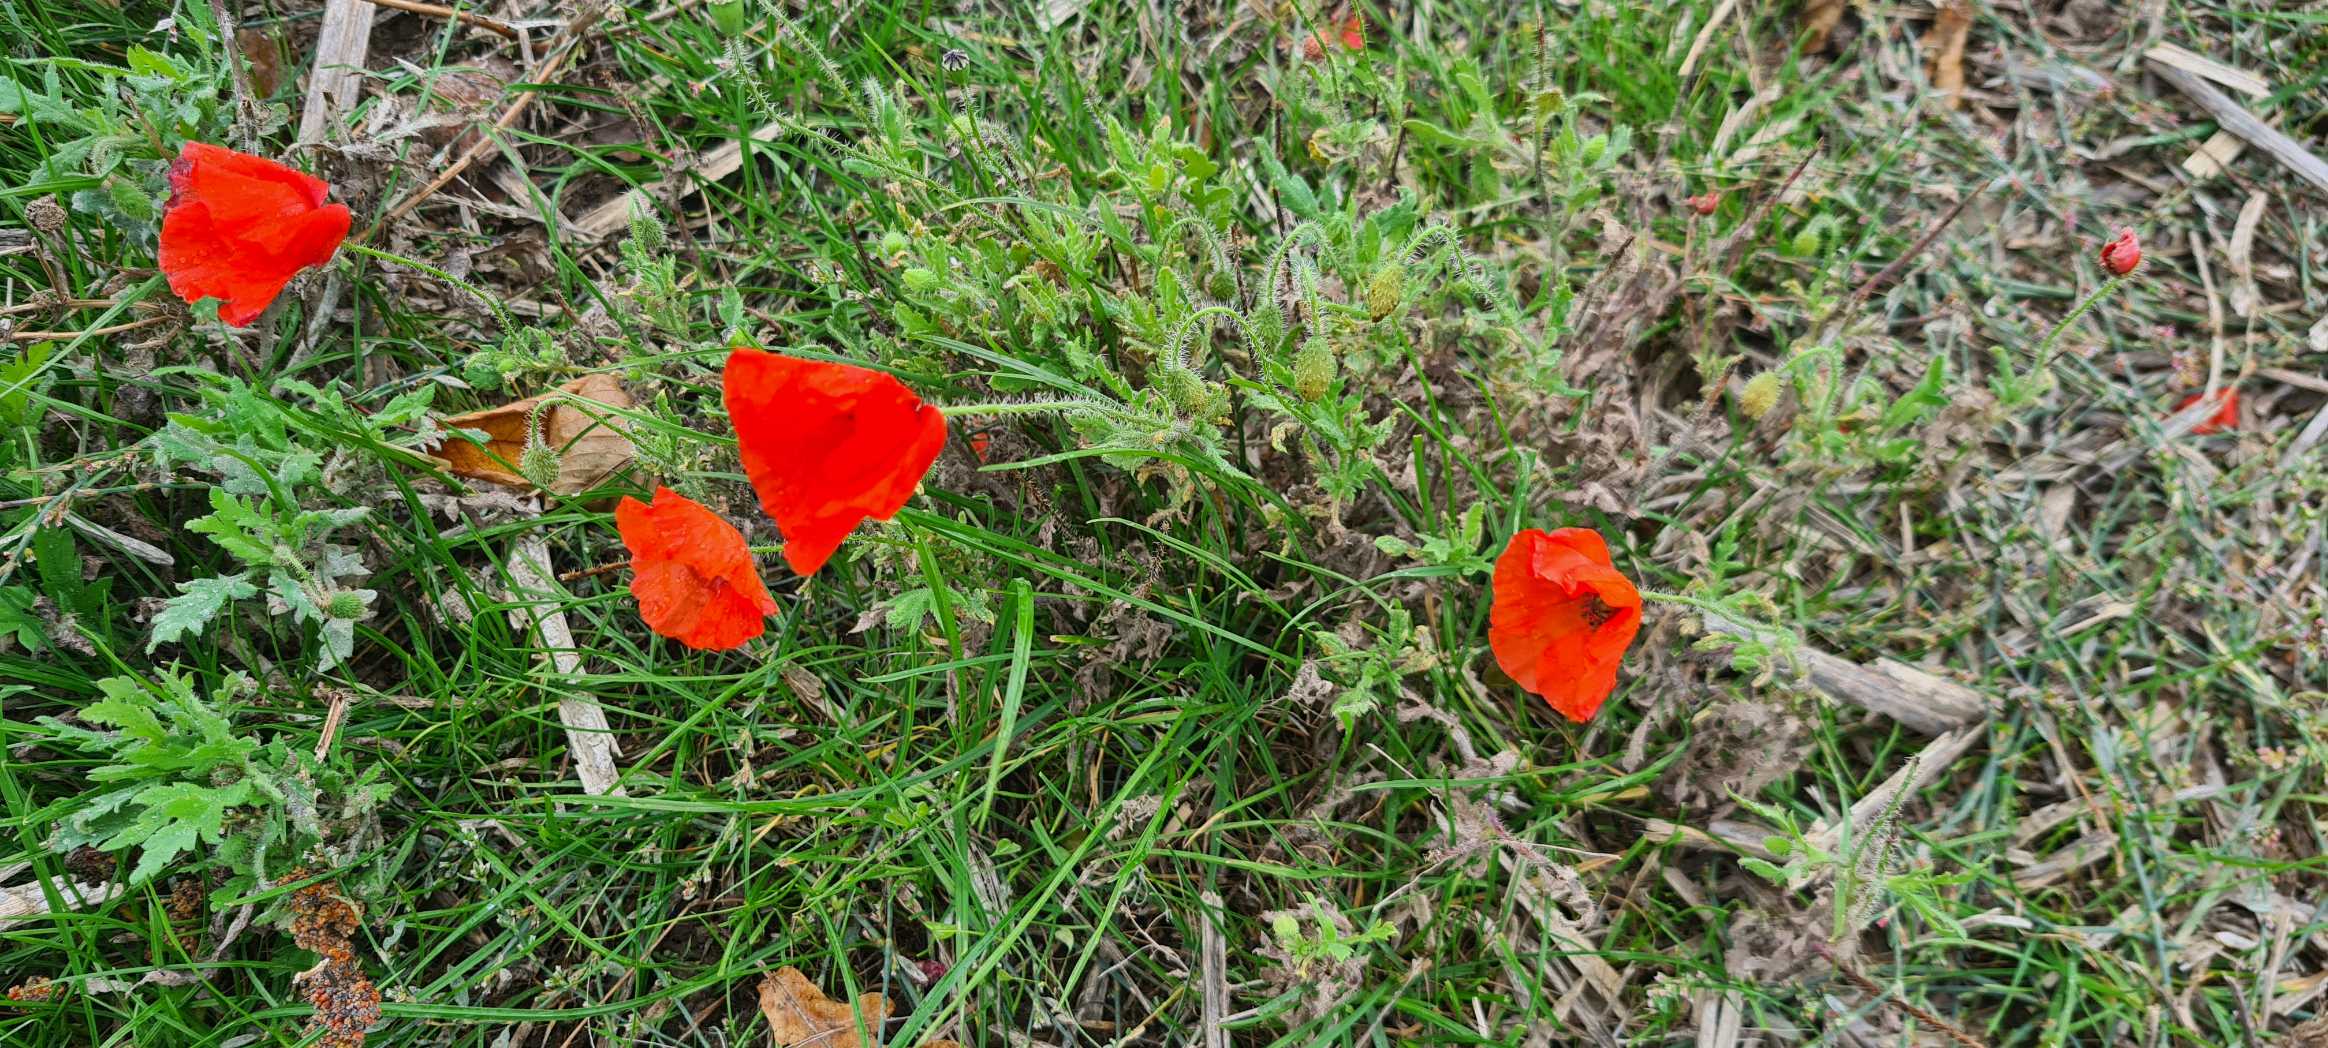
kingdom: Plantae
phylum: Tracheophyta
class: Magnoliopsida
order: Ranunculales
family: Papaveraceae
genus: Papaver
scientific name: Papaver rhoeas
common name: Korn-valmue
